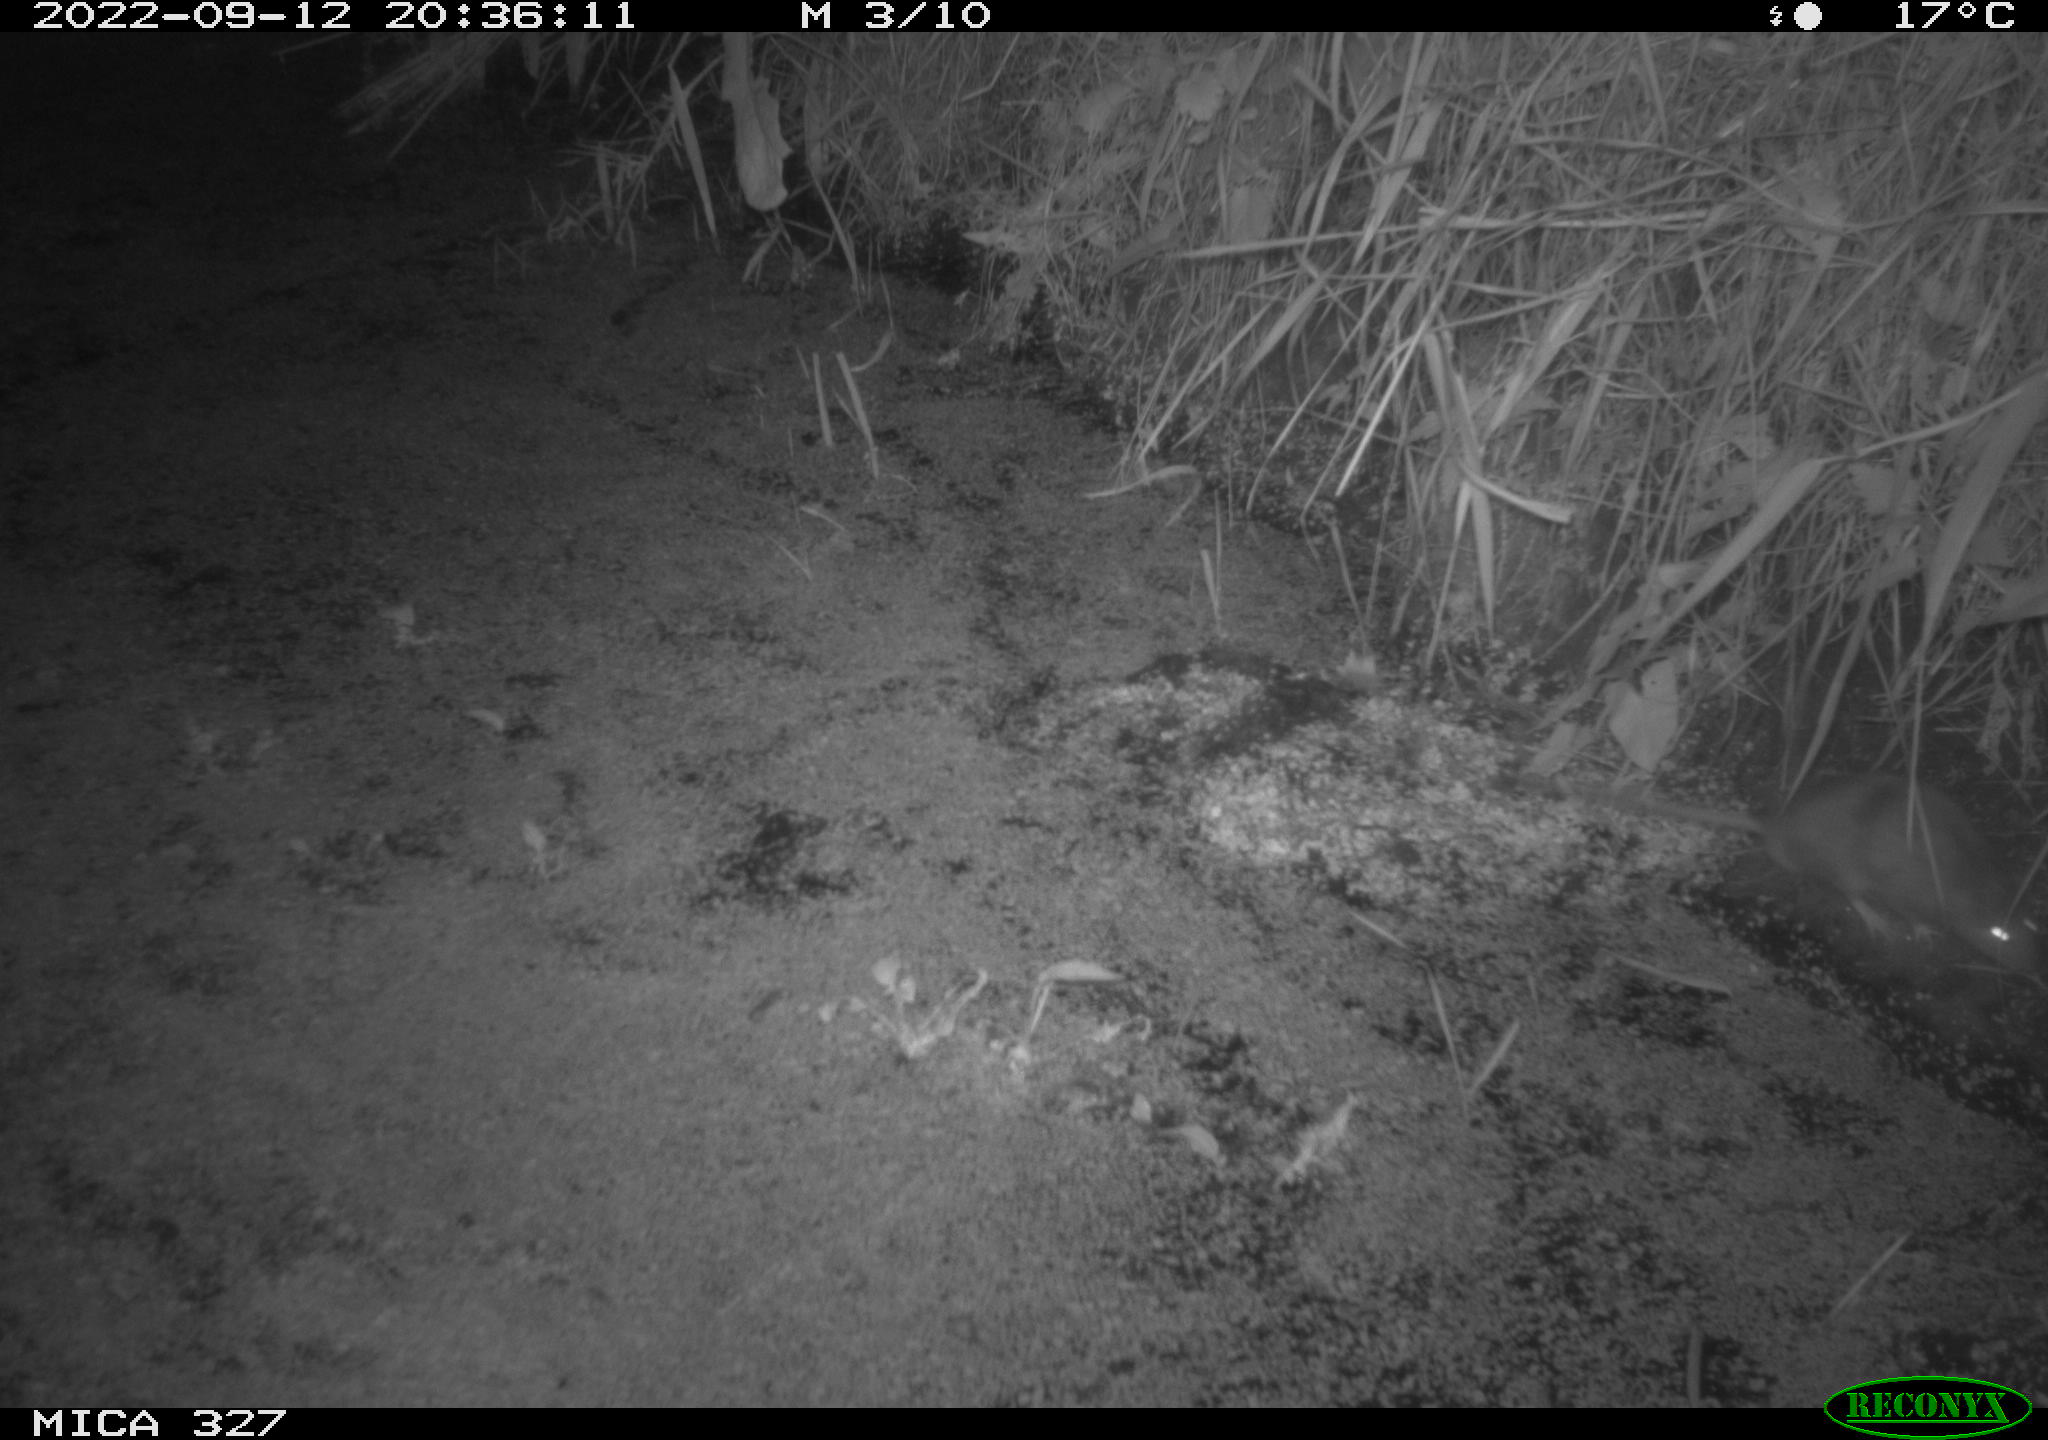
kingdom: Animalia
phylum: Chordata
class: Mammalia
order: Rodentia
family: Muridae
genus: Rattus
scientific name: Rattus norvegicus
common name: Brown rat
